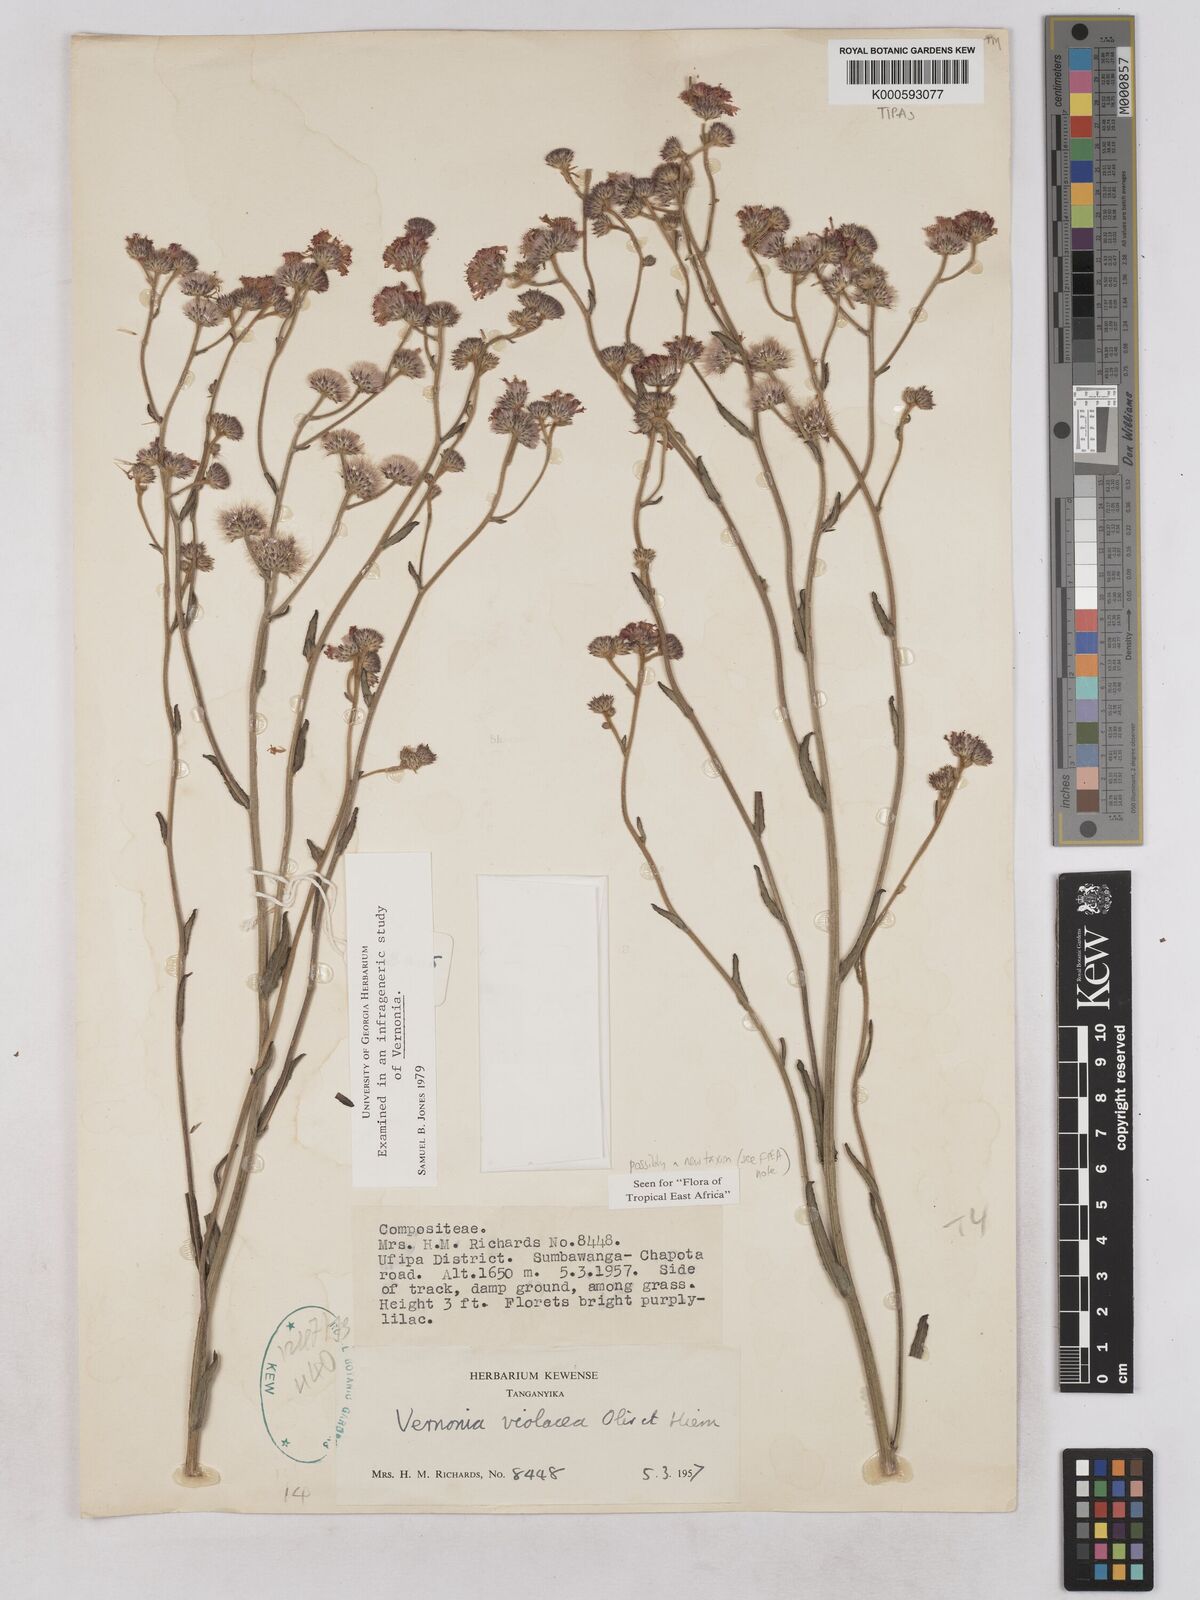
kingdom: Plantae
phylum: Tracheophyta
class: Magnoliopsida
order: Asterales
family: Asteraceae
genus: Vernonia
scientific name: Vernonia violacea
